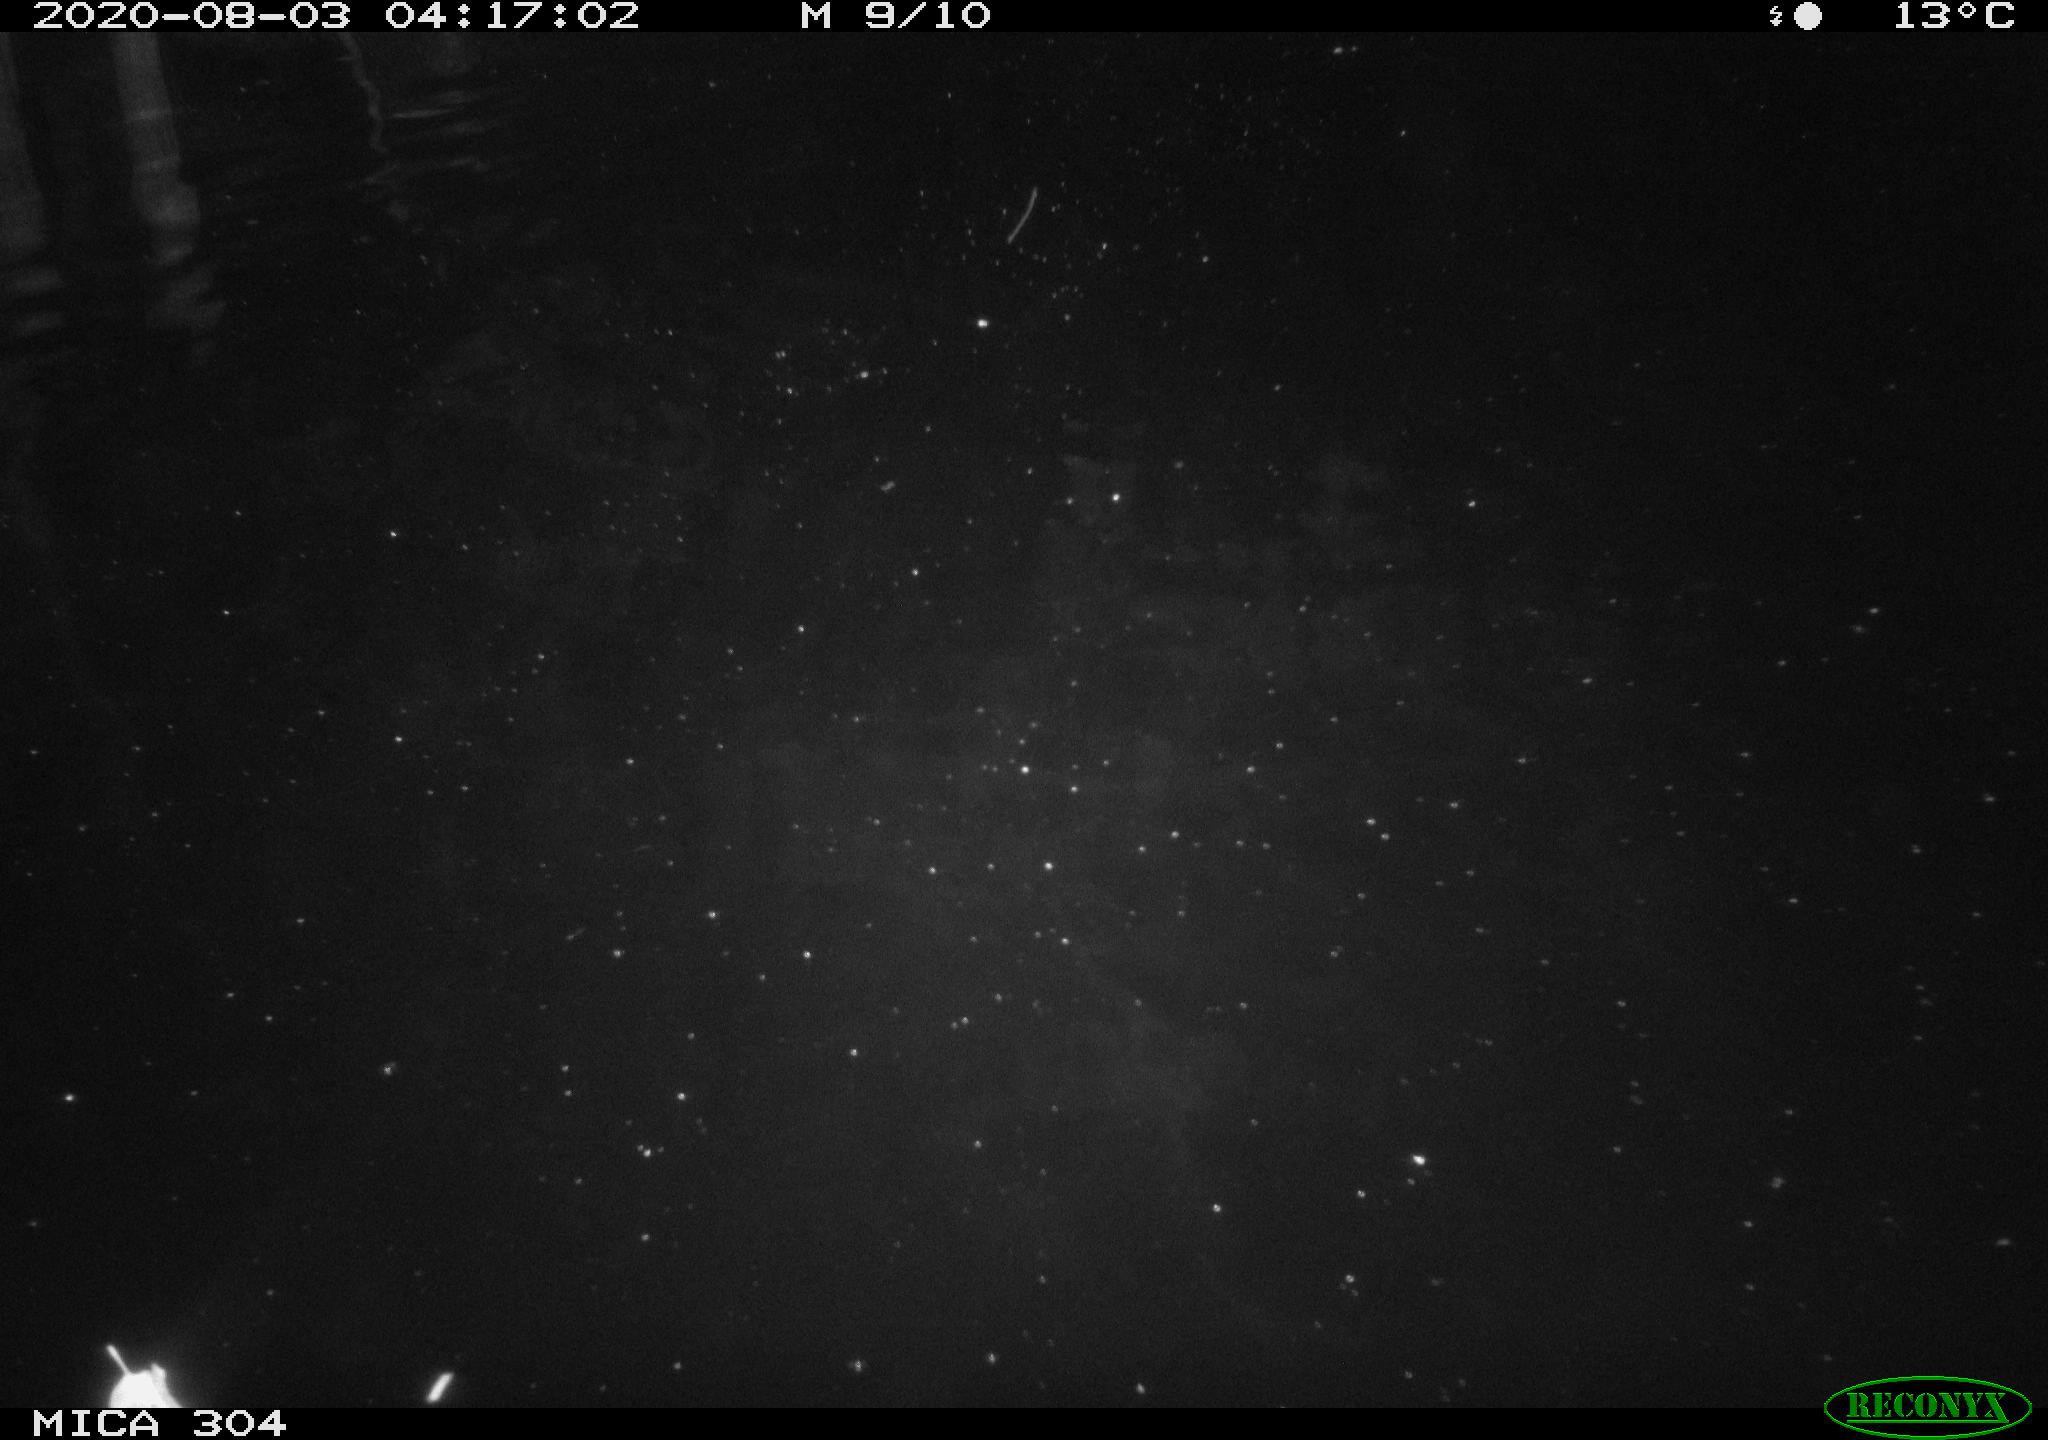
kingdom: Animalia
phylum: Chordata
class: Mammalia
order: Rodentia
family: Cricetidae
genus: Ondatra
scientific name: Ondatra zibethicus
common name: Muskrat
